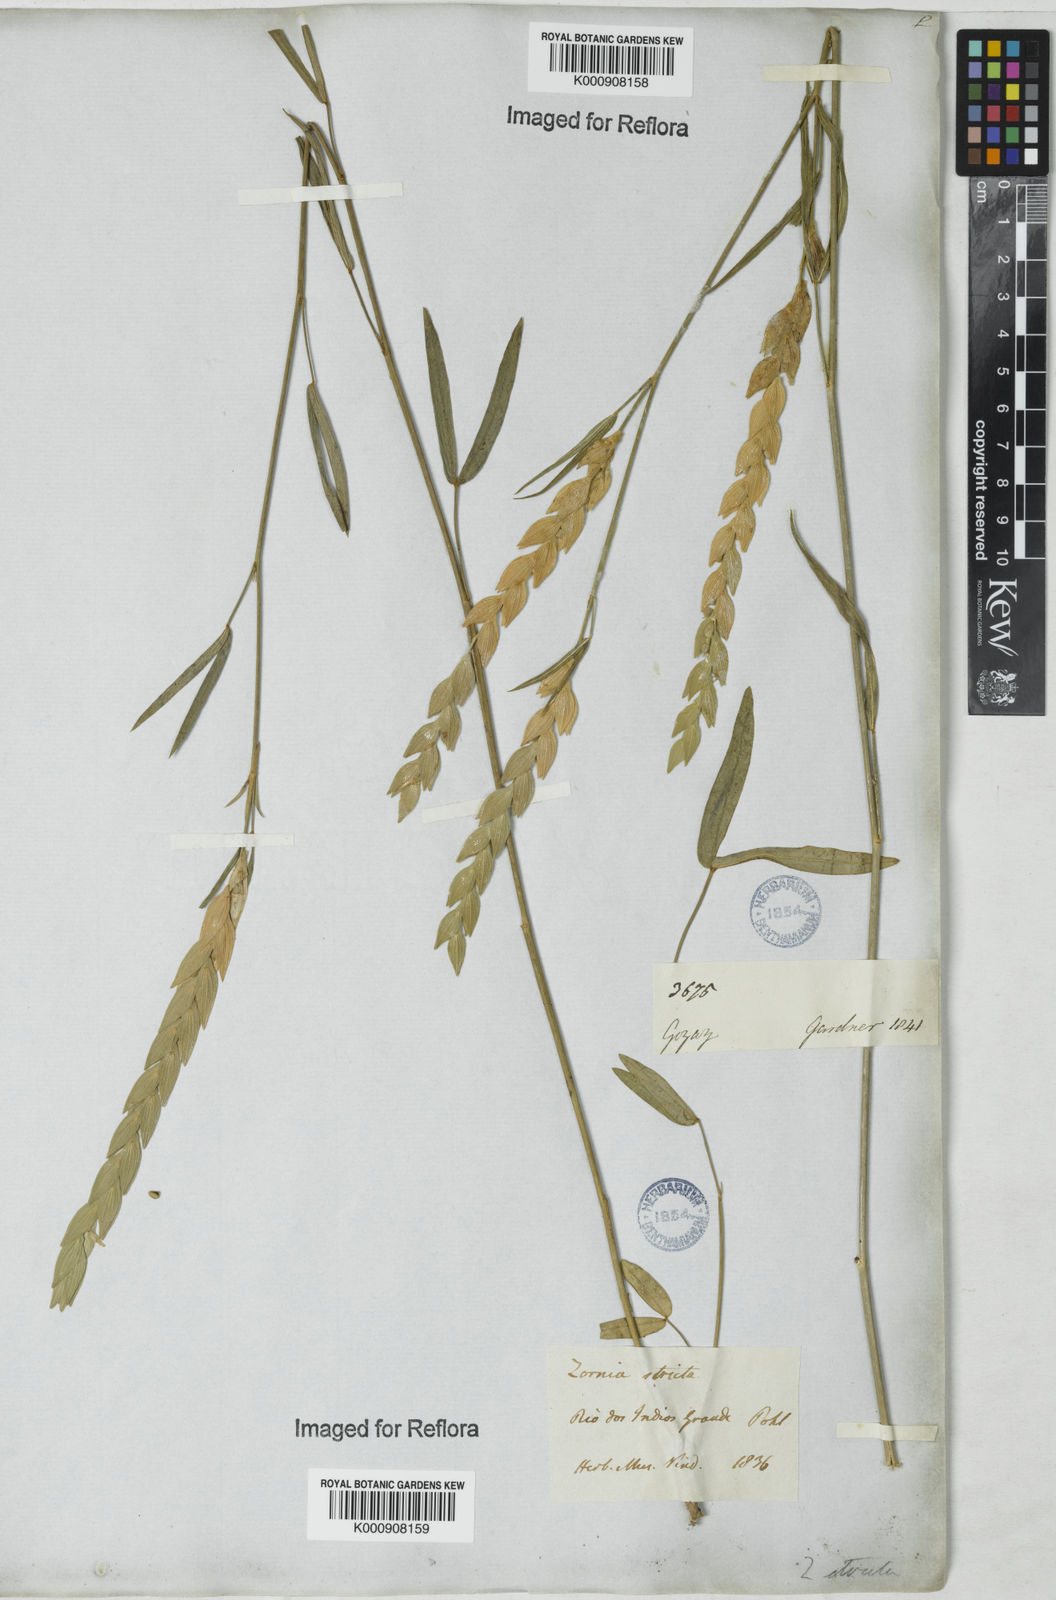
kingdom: Plantae
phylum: Tracheophyta
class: Magnoliopsida
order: Fabales
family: Fabaceae
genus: Zornia
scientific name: Zornia reticulata
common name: Reticulate viperina
